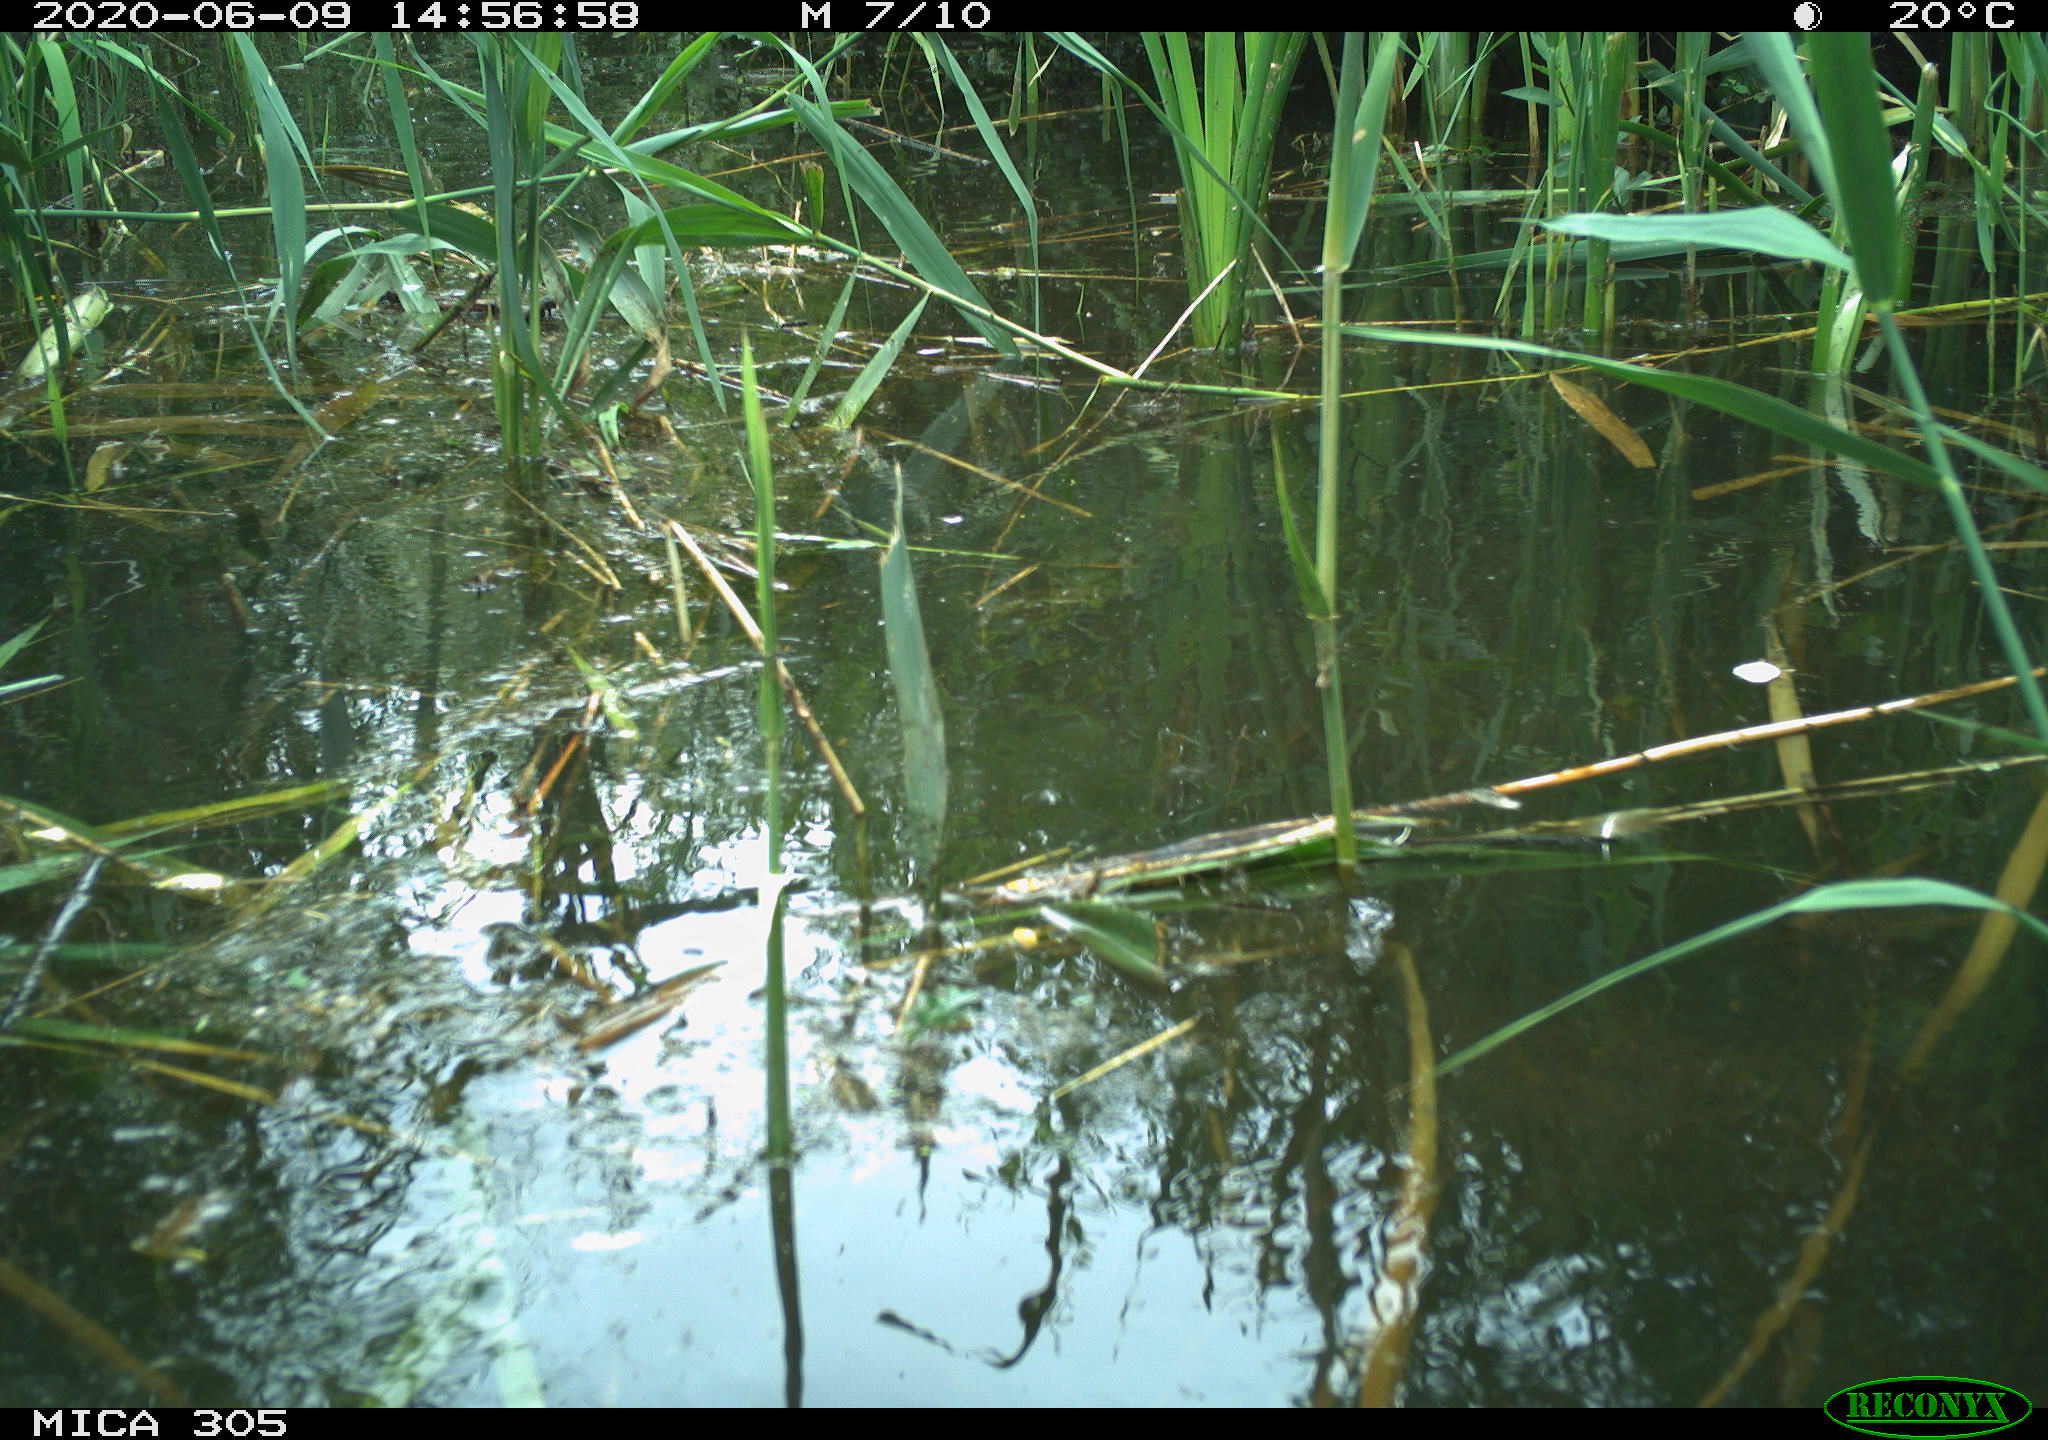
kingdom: Animalia
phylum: Chordata
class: Aves
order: Anseriformes
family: Anatidae
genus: Anas
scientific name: Anas platyrhynchos
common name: Mallard
